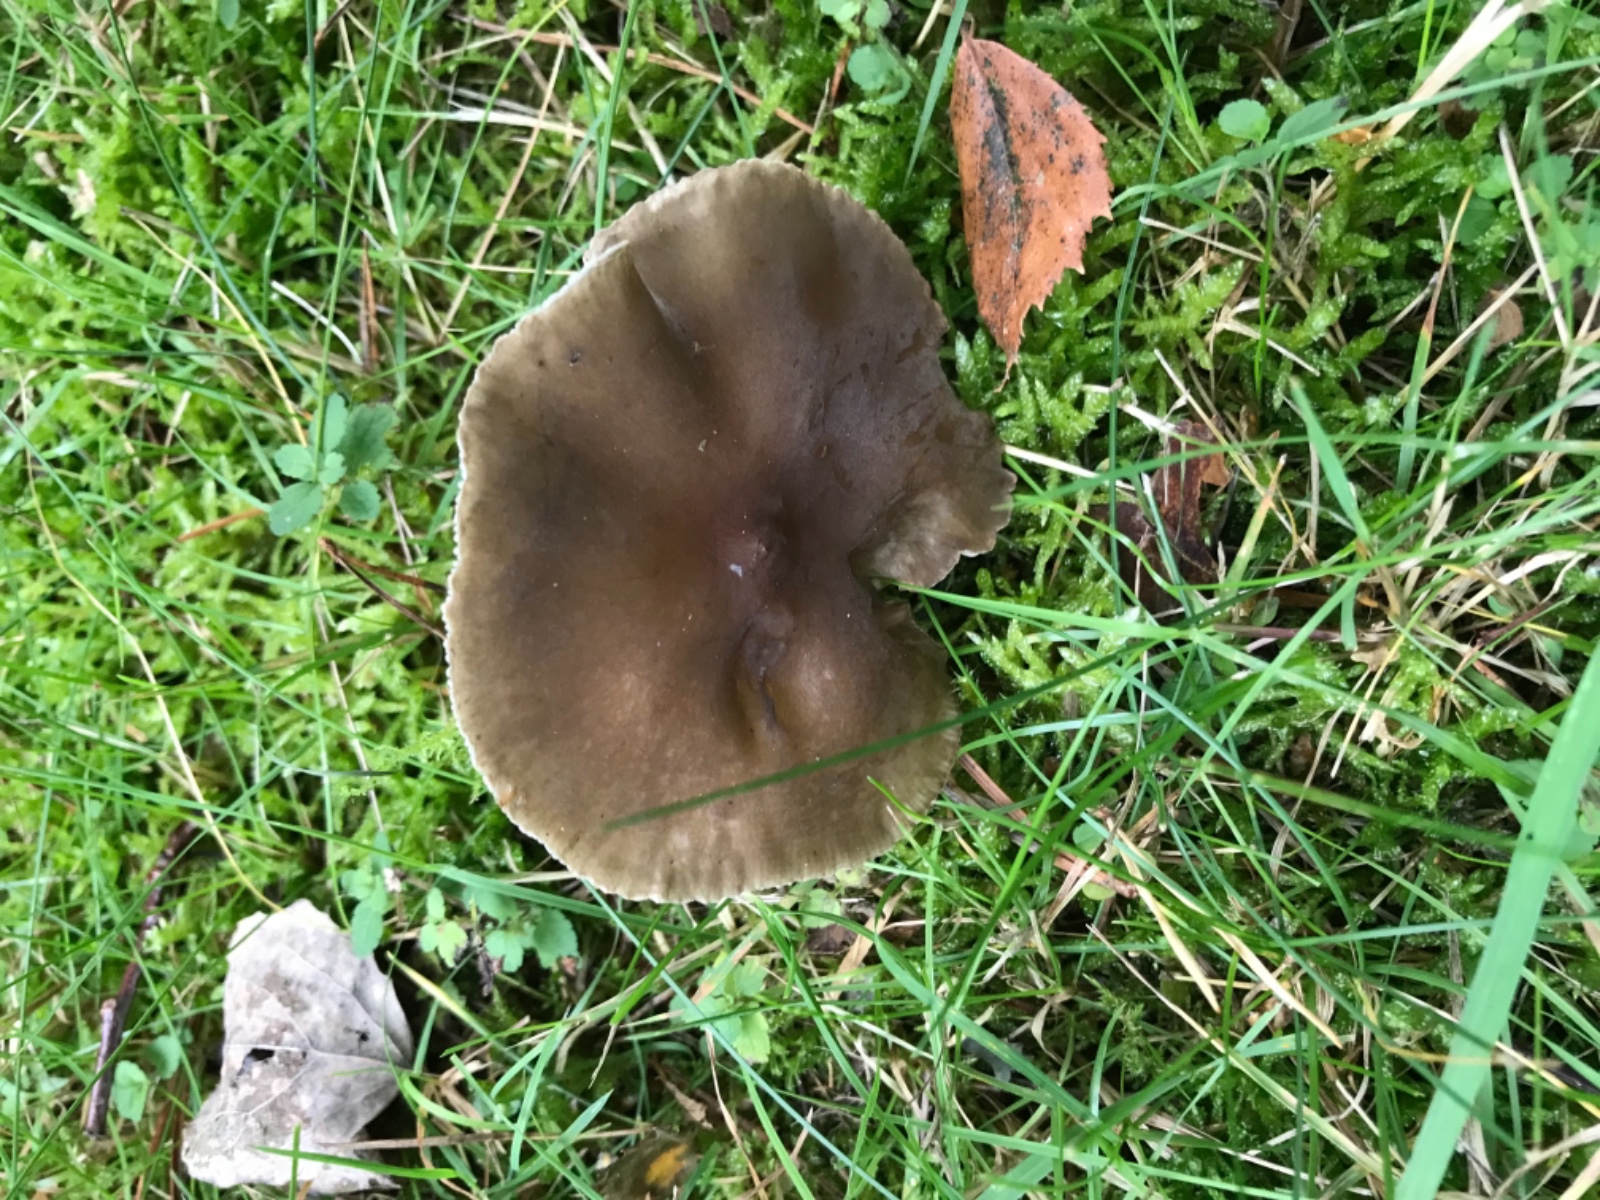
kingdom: Fungi
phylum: Basidiomycota
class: Agaricomycetes
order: Agaricales
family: Hygrophoraceae
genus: Ampulloclitocybe
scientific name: Ampulloclitocybe clavipes
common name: køllefod
